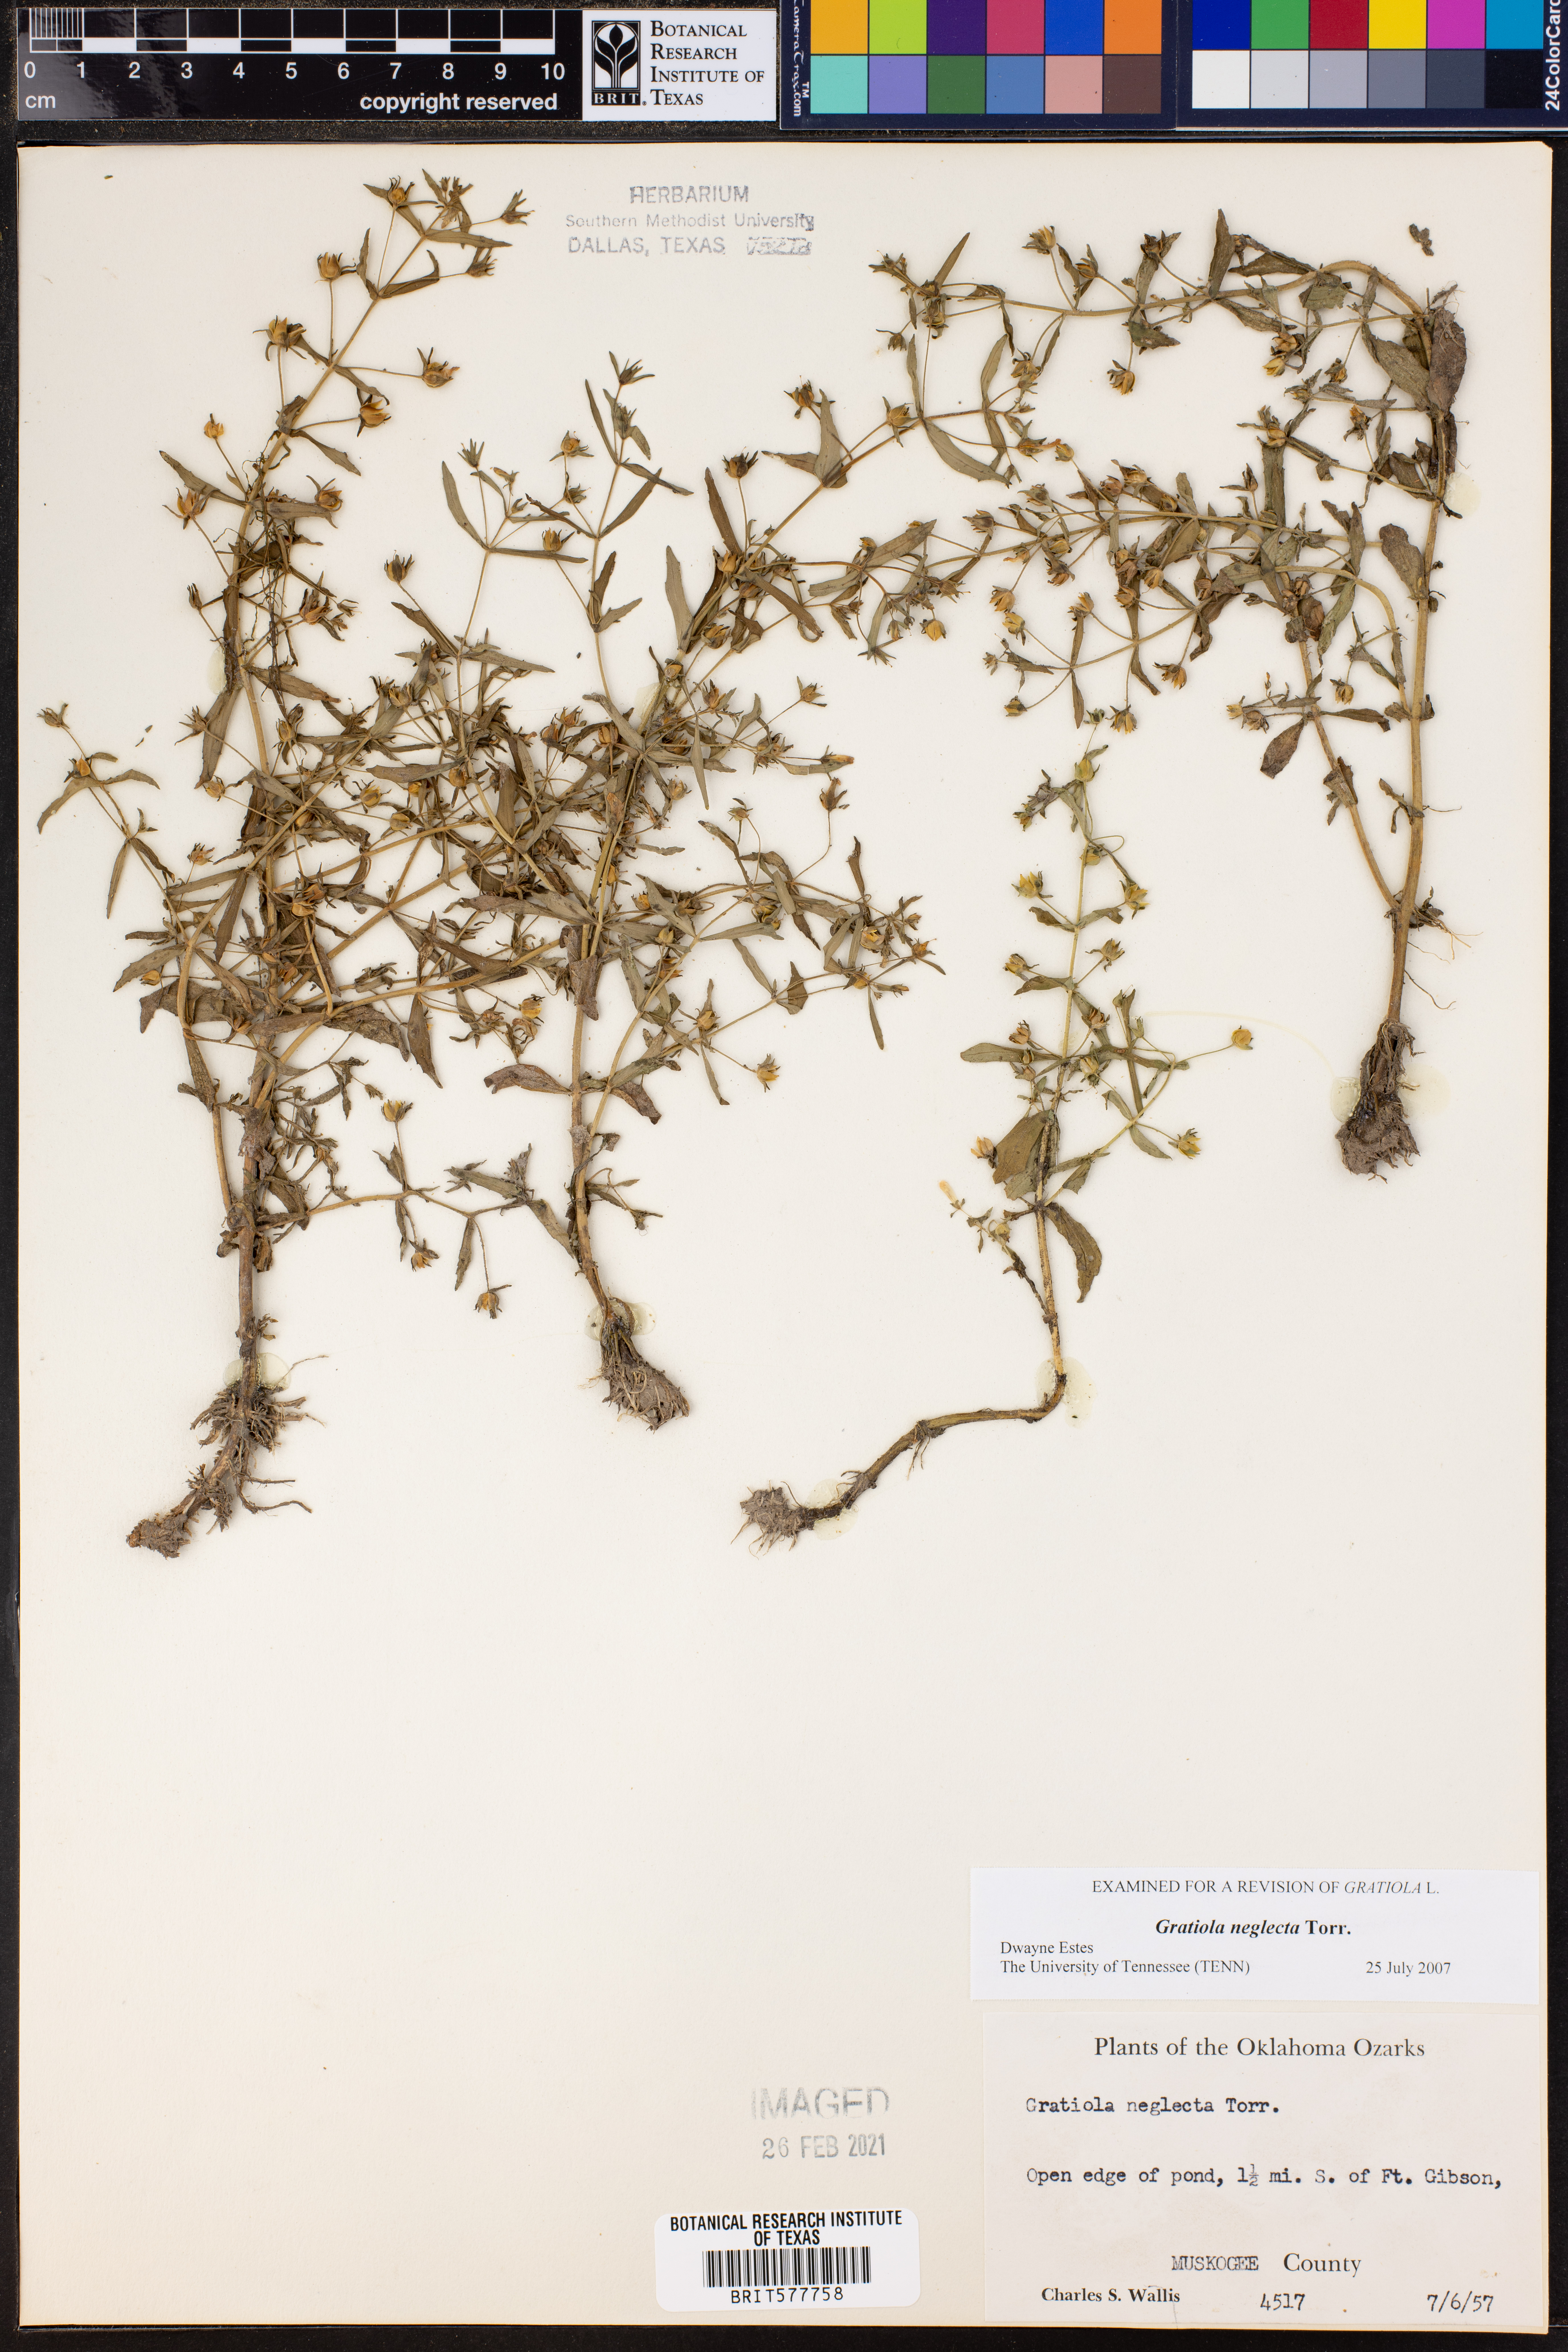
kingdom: Plantae
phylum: Tracheophyta
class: Magnoliopsida
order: Lamiales
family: Plantaginaceae
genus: Gratiola
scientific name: Gratiola neglecta
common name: American hedge-hyssop
